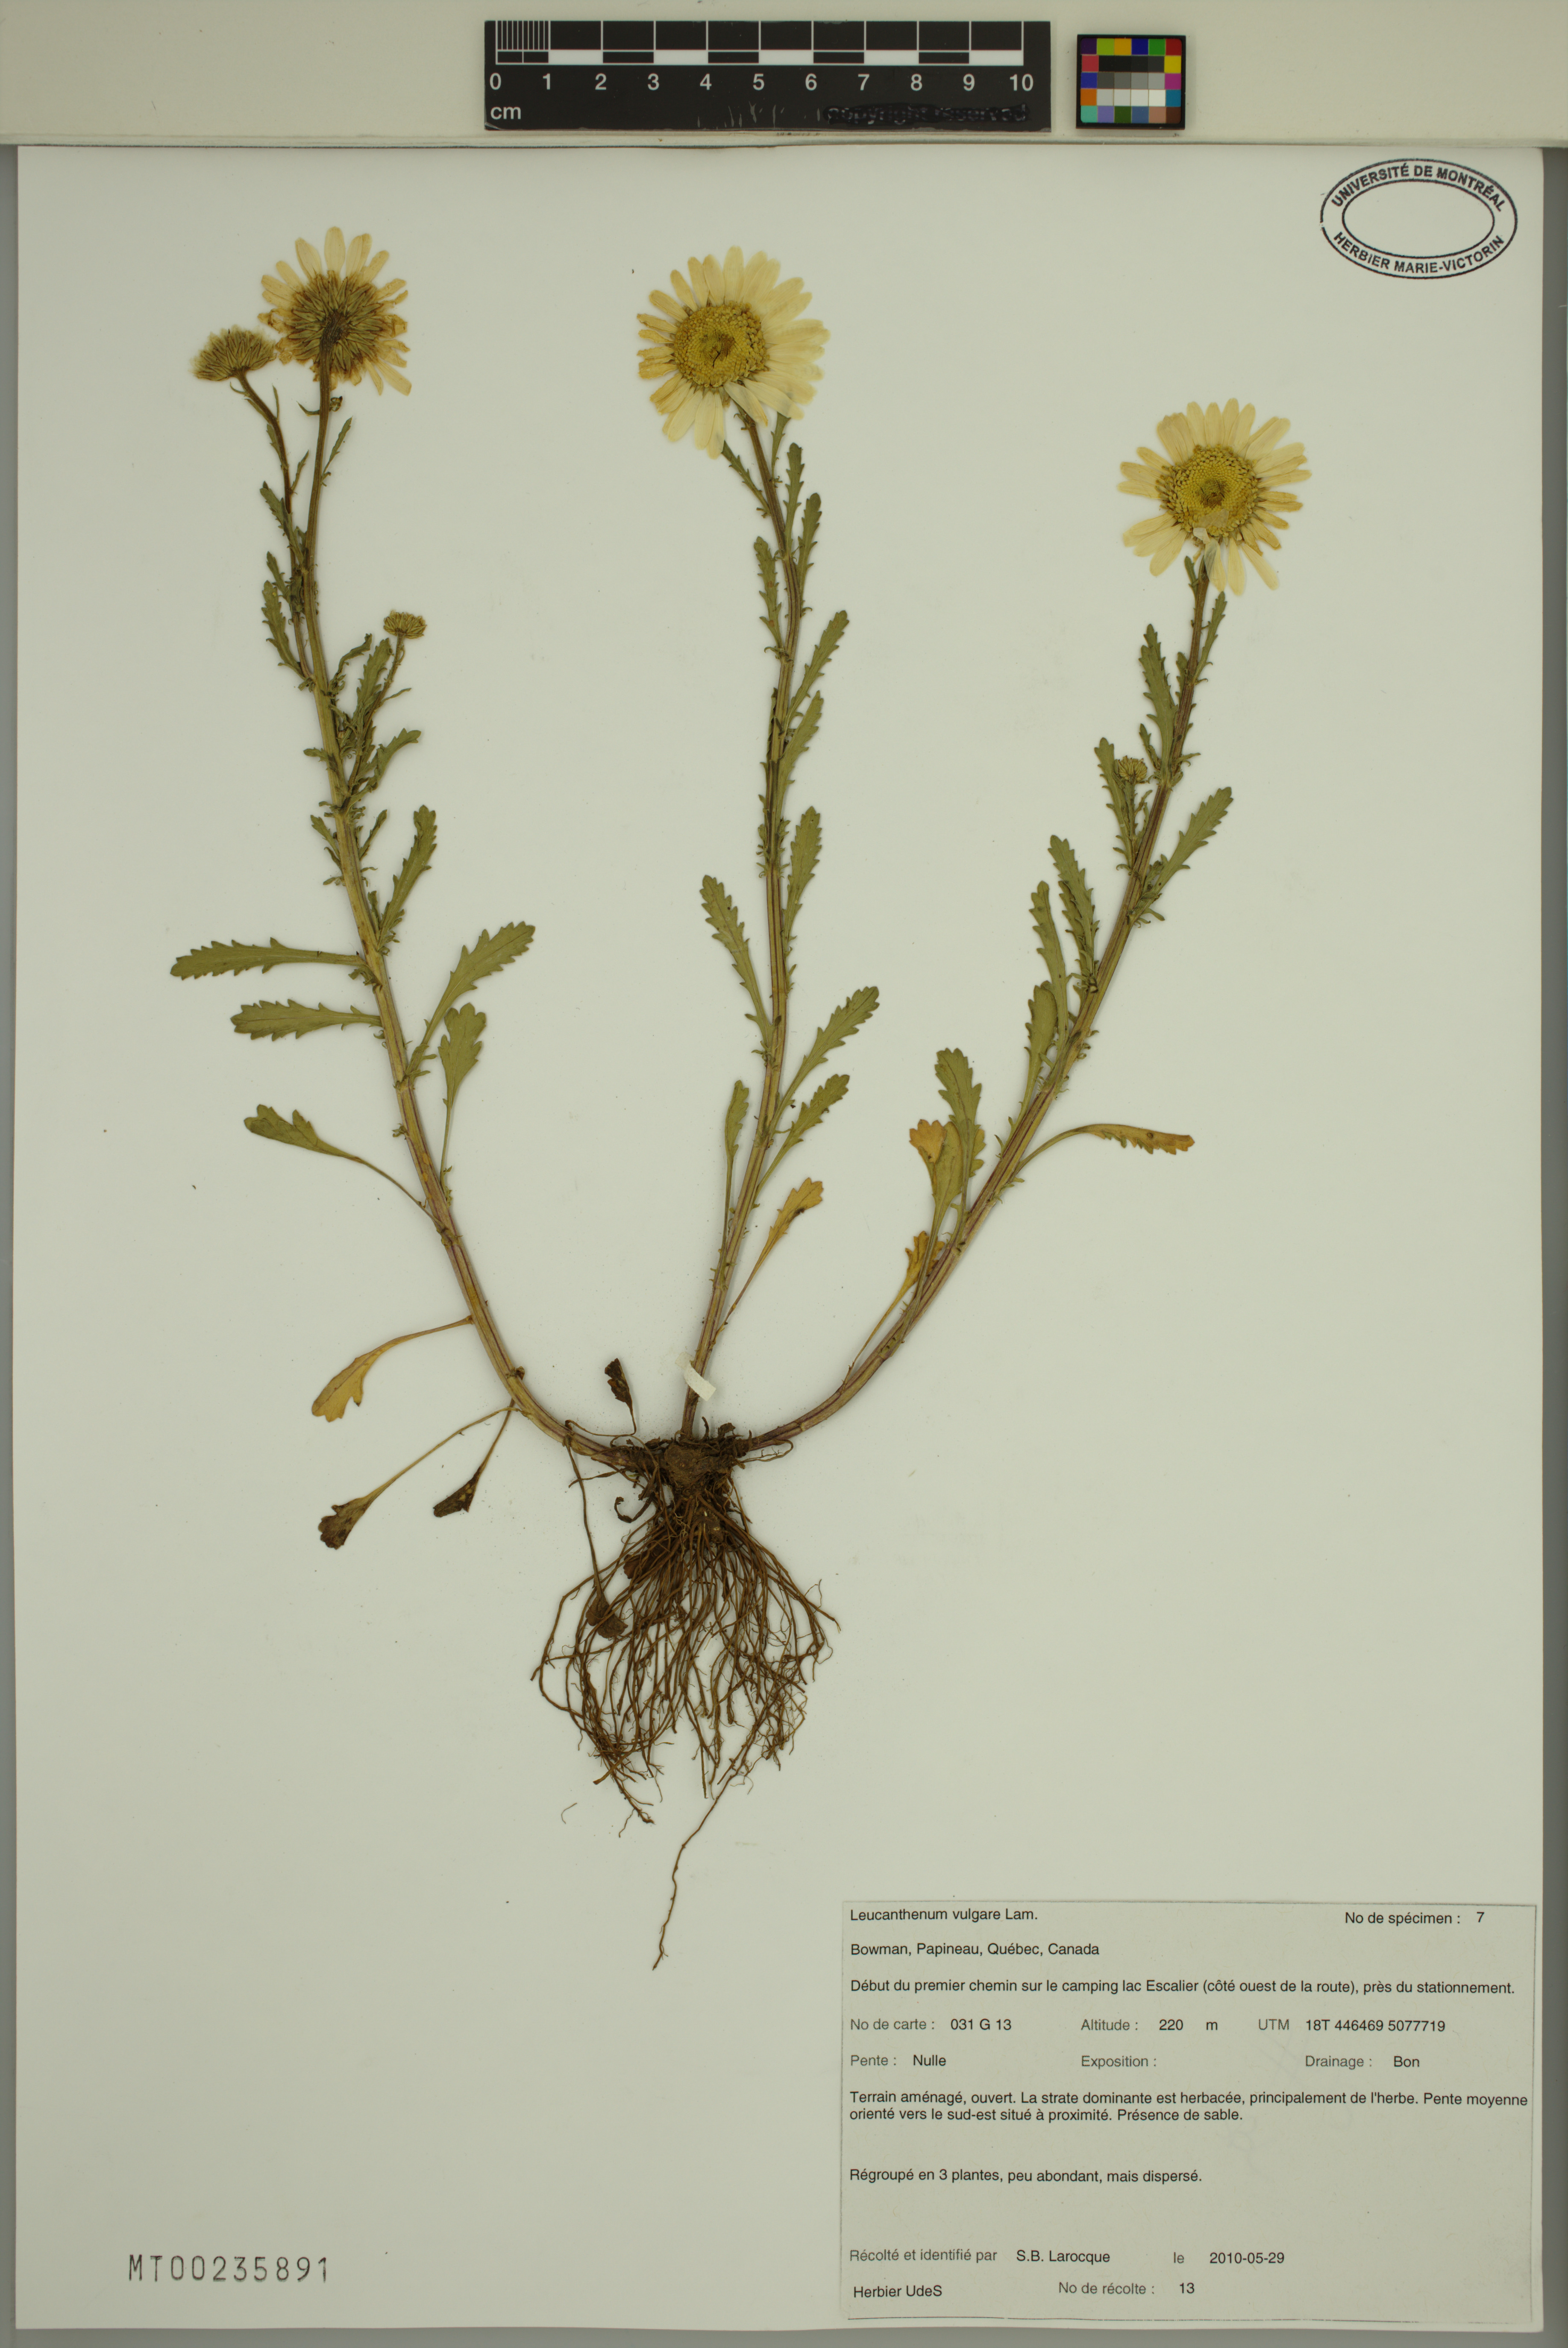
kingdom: Plantae
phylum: Tracheophyta
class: Magnoliopsida
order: Asterales
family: Asteraceae
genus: Leucanthemum
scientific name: Leucanthemum vulgare
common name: Oxeye daisy
